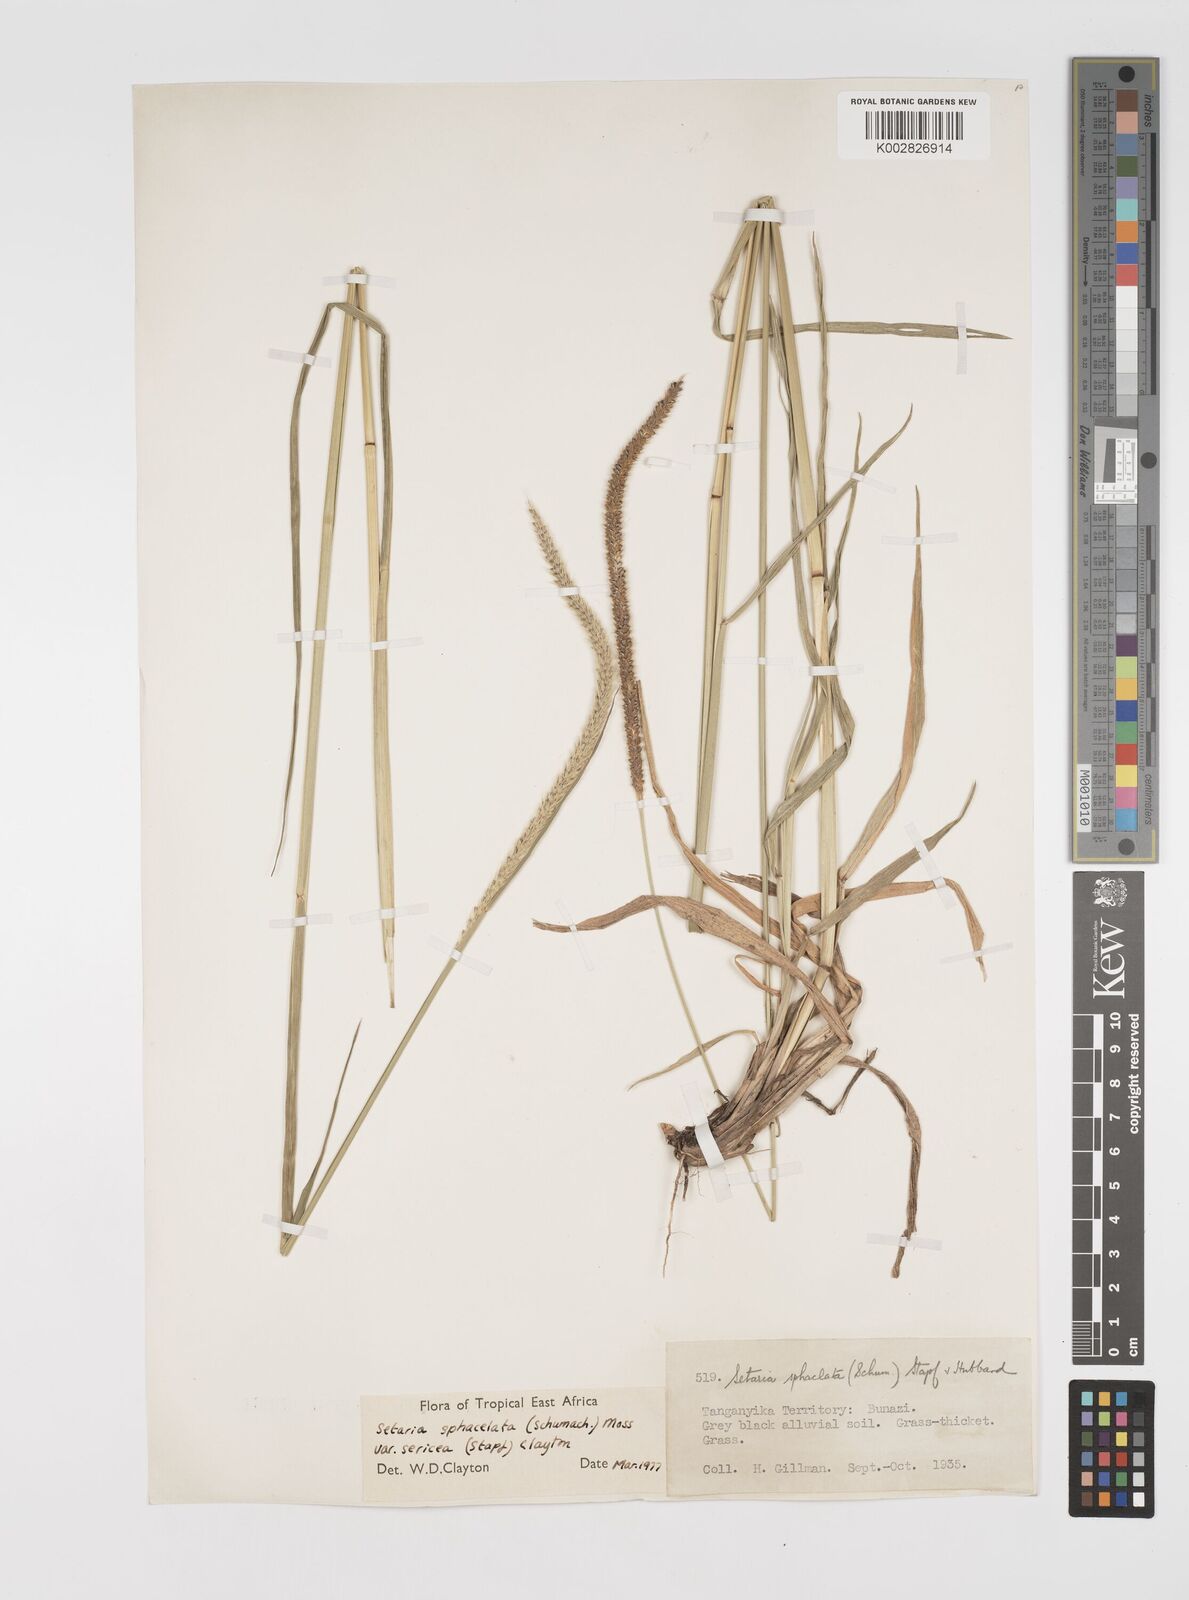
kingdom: Plantae
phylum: Tracheophyta
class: Liliopsida
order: Poales
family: Poaceae
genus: Setaria
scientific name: Setaria sphacelata
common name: African bristlegrass
